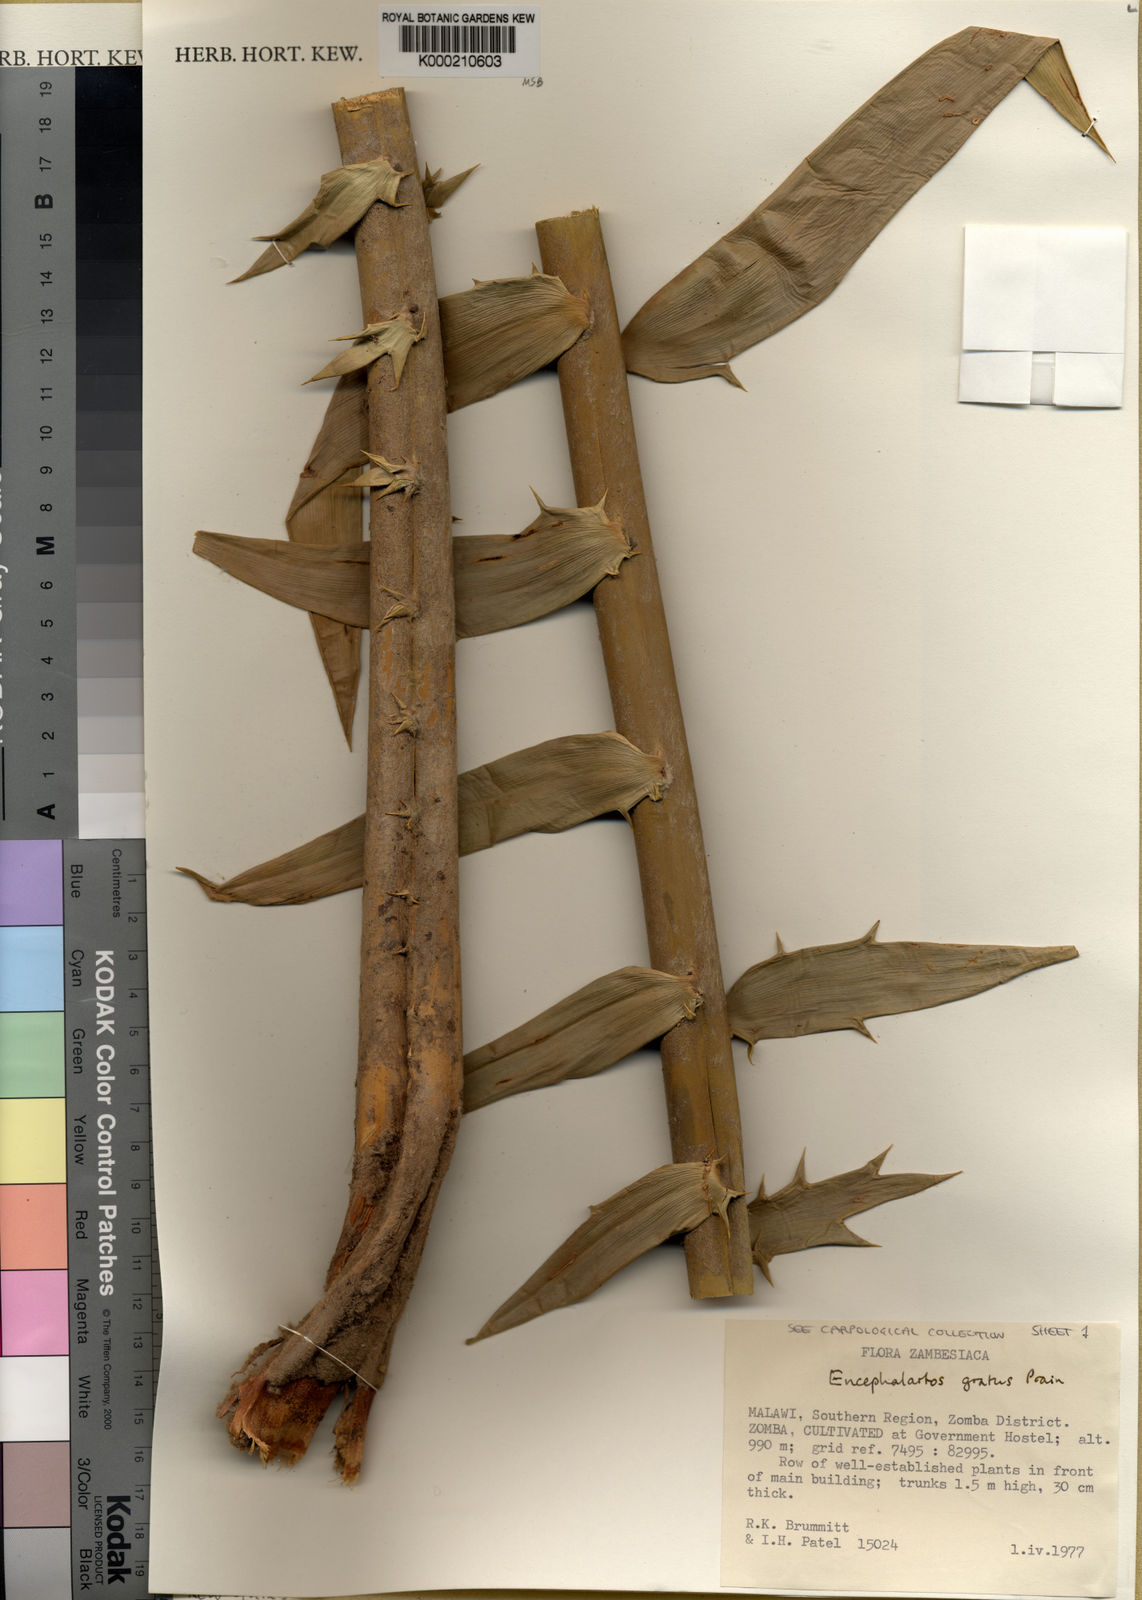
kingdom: Plantae
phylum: Tracheophyta
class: Cycadopsida
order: Cycadales
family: Zamiaceae
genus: Encephalartos
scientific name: Encephalartos gratus
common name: Mulanje cycad
